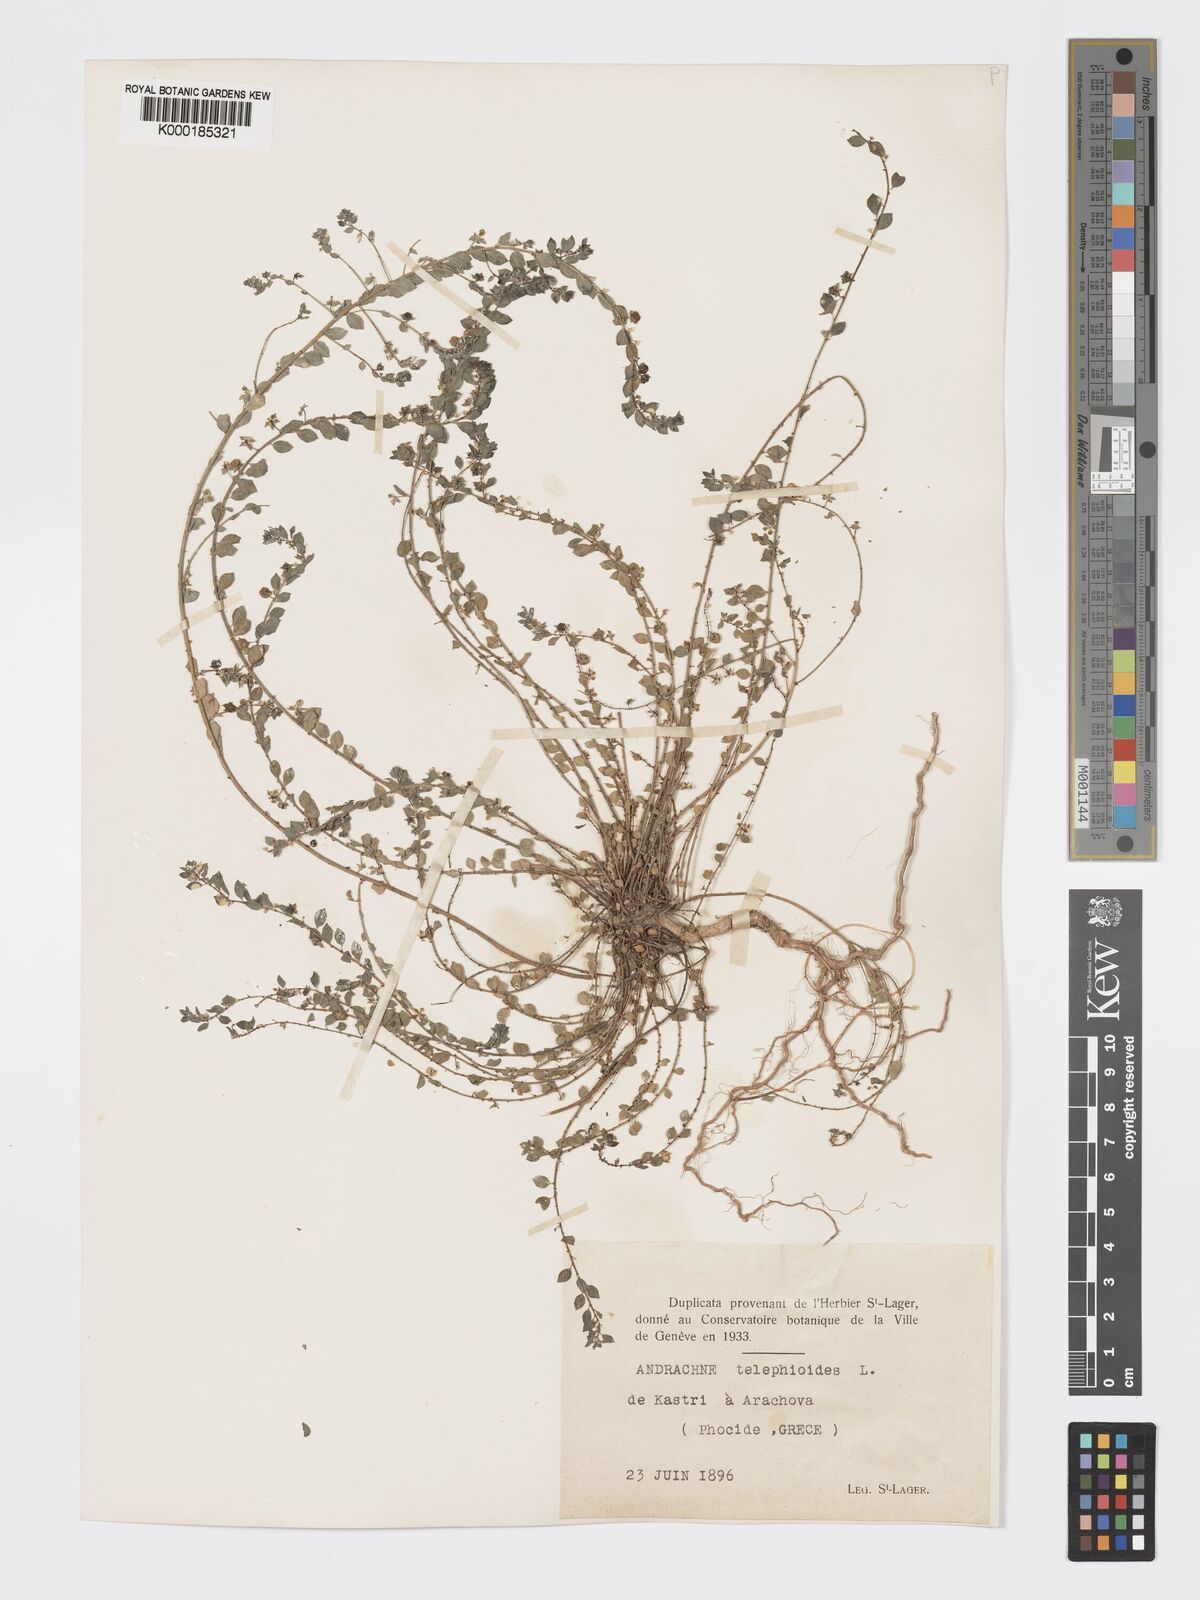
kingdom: Plantae
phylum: Tracheophyta
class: Magnoliopsida
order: Malpighiales
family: Phyllanthaceae
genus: Andrachne
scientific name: Andrachne telephioides
